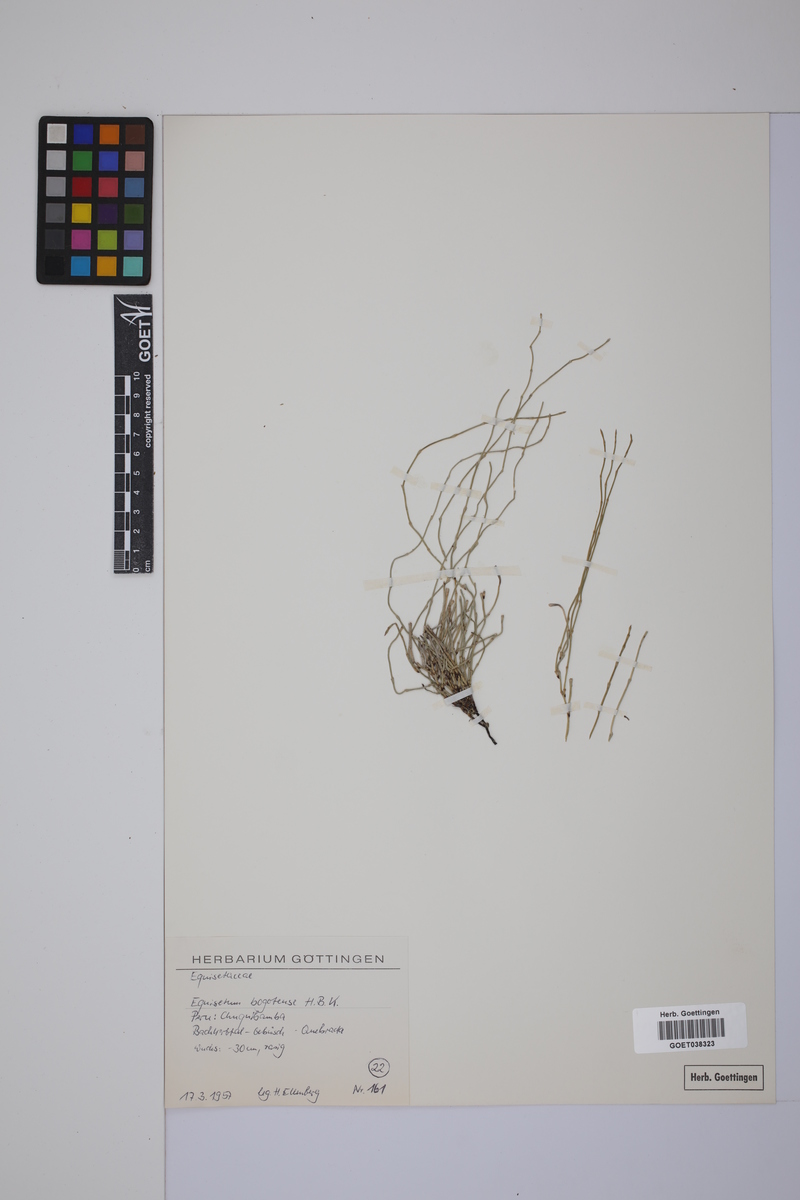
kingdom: Plantae
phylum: Tracheophyta
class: Polypodiopsida
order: Equisetales
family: Equisetaceae
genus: Equisetum
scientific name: Equisetum bogotense
